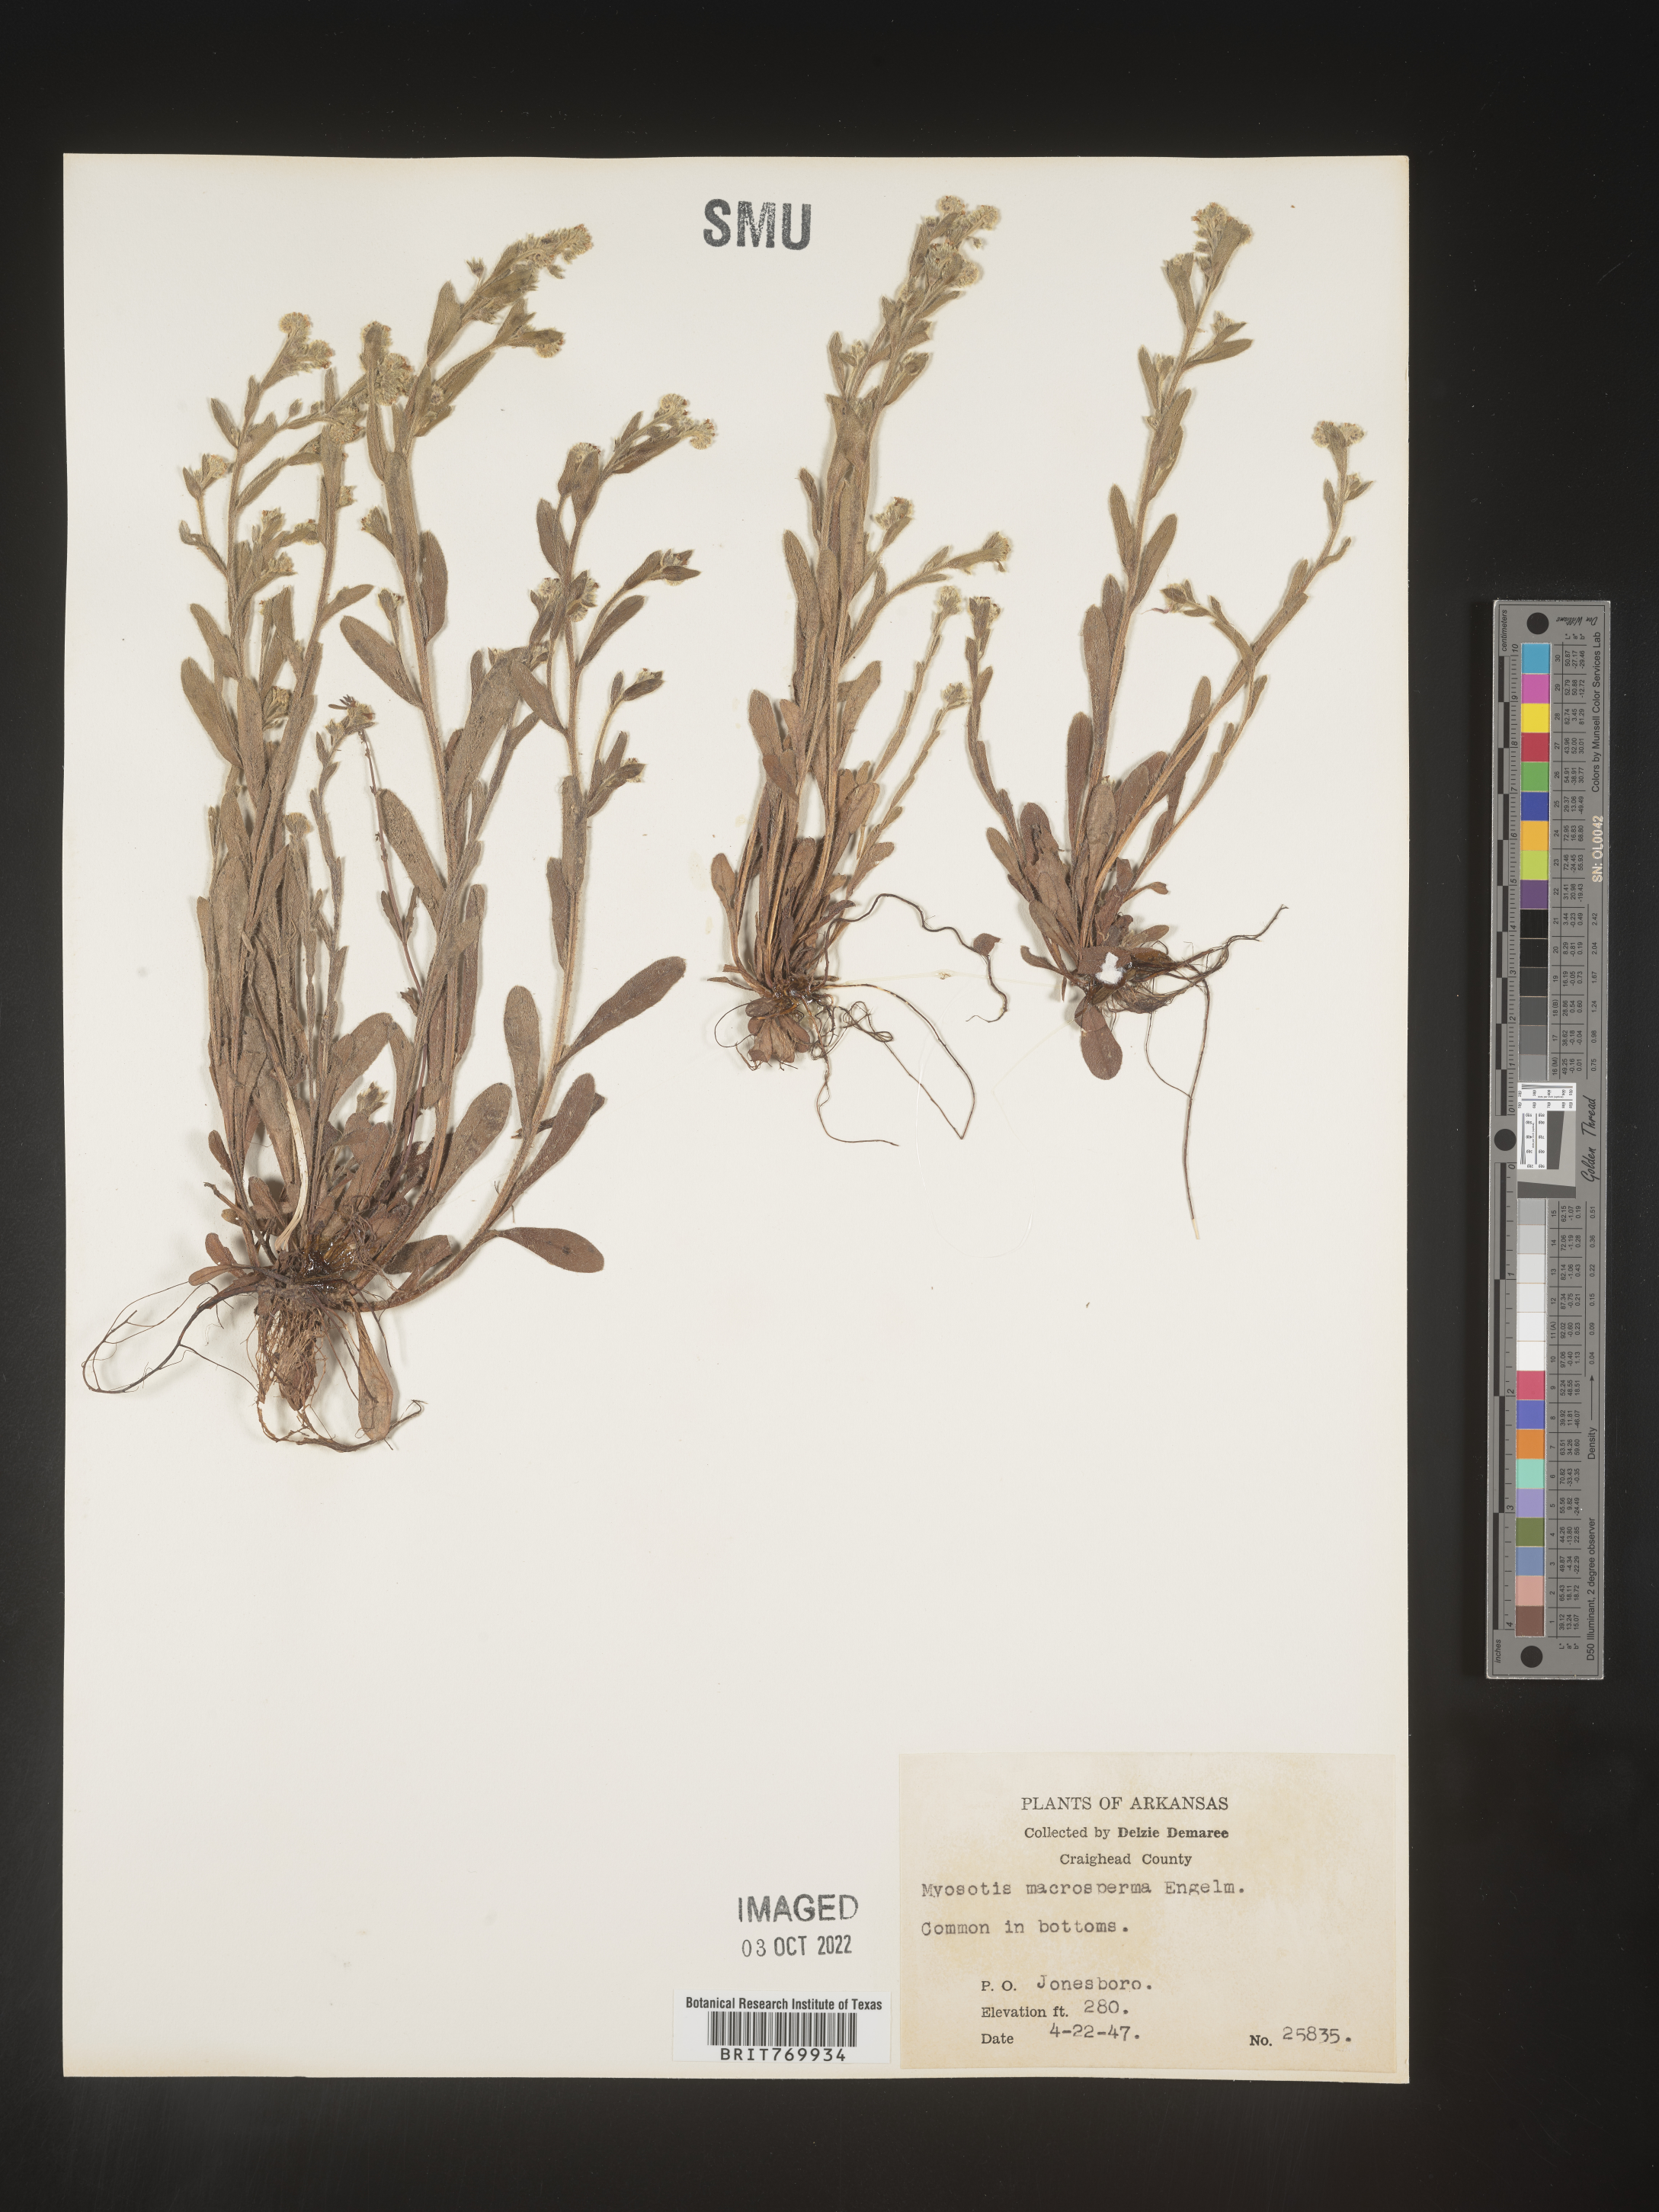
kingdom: Plantae
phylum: Tracheophyta
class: Magnoliopsida
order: Boraginales
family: Boraginaceae
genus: Myosotis
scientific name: Myosotis verna
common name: Early forget-me-not
